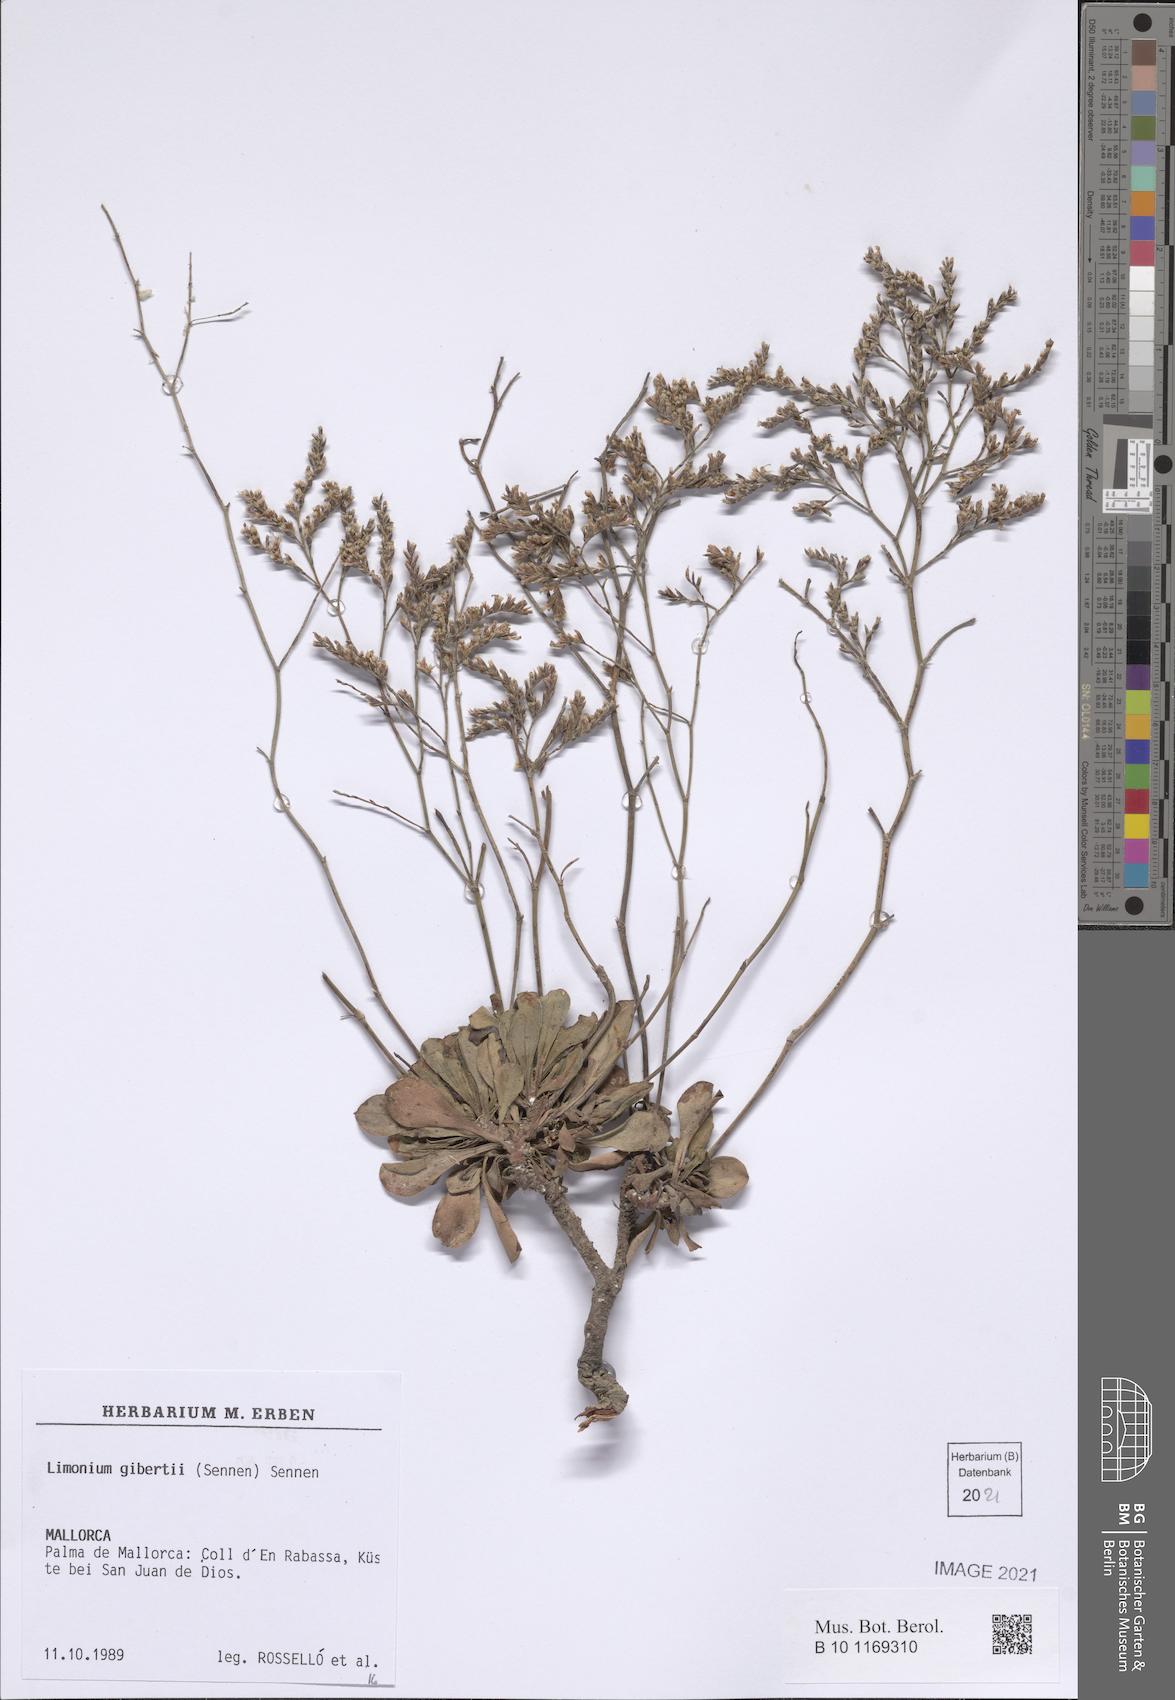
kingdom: Plantae
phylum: Tracheophyta
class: Magnoliopsida
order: Caryophyllales
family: Plumbaginaceae
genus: Limonium
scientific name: Limonium gibertii
